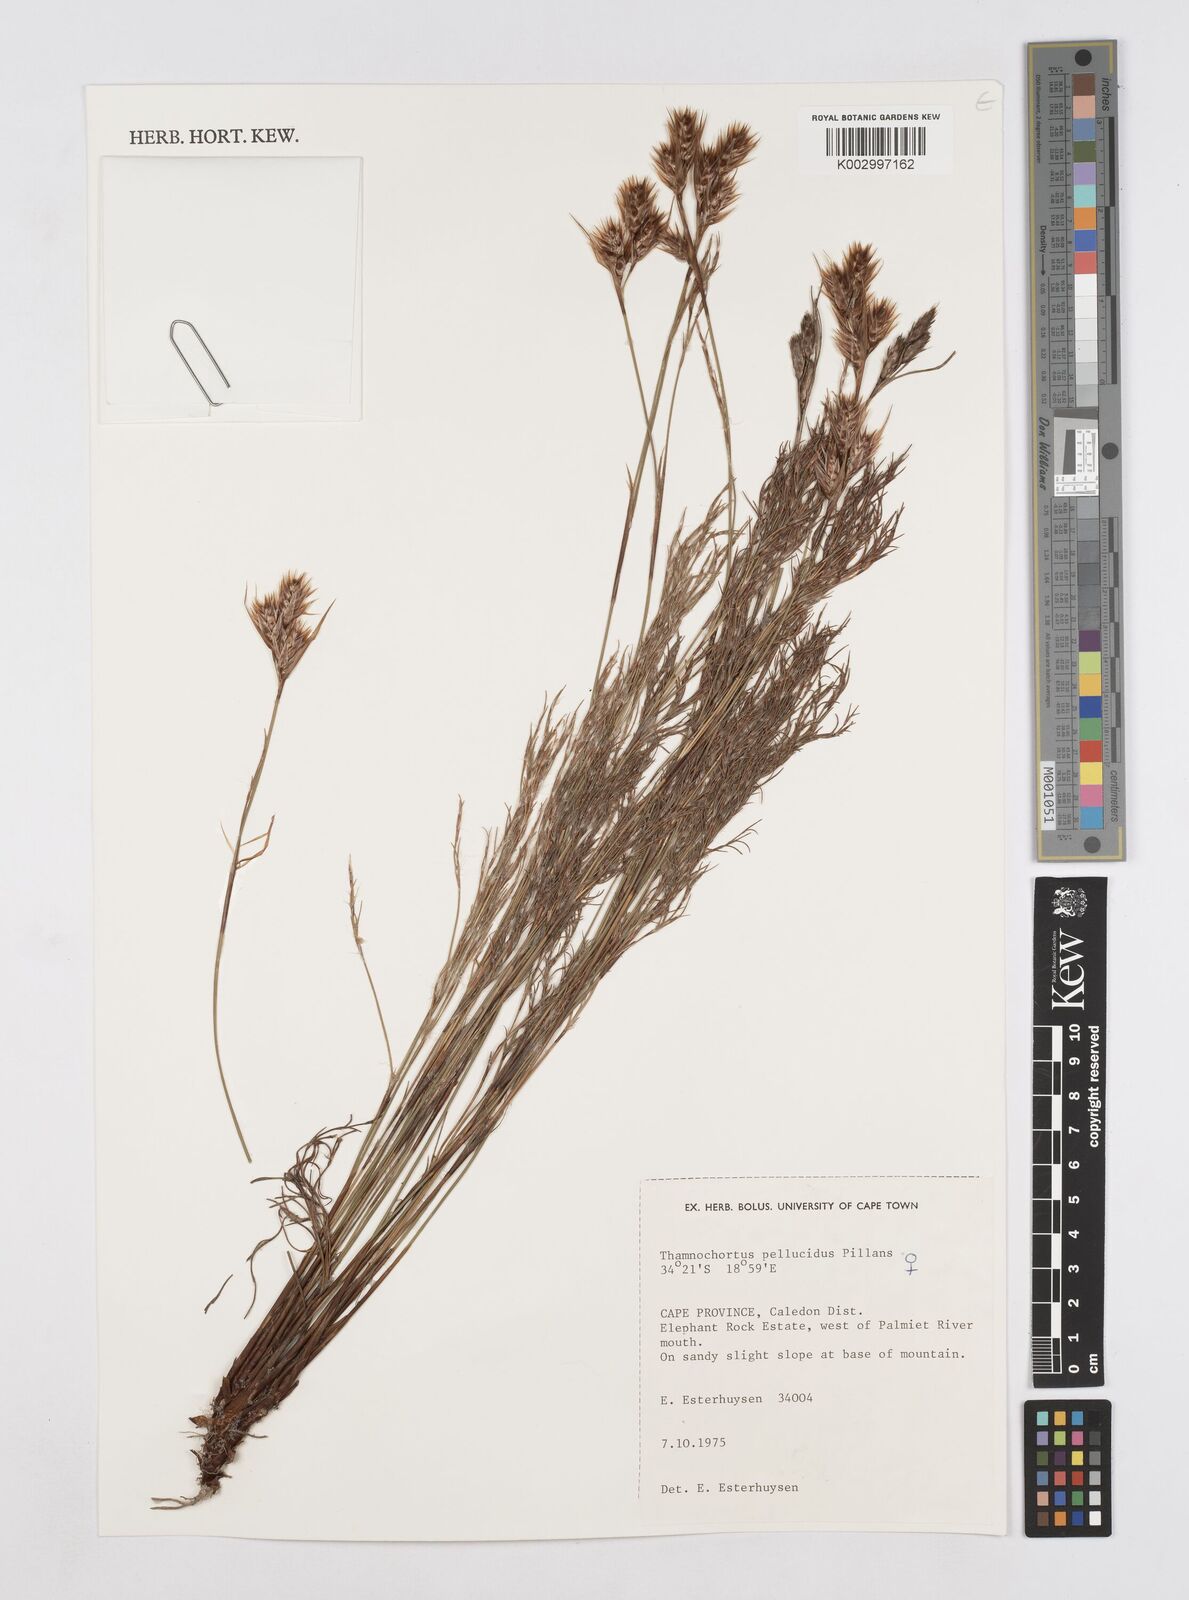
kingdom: Plantae
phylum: Tracheophyta
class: Liliopsida
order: Poales
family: Restionaceae
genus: Thamnochortus
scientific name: Thamnochortus pellucidus
